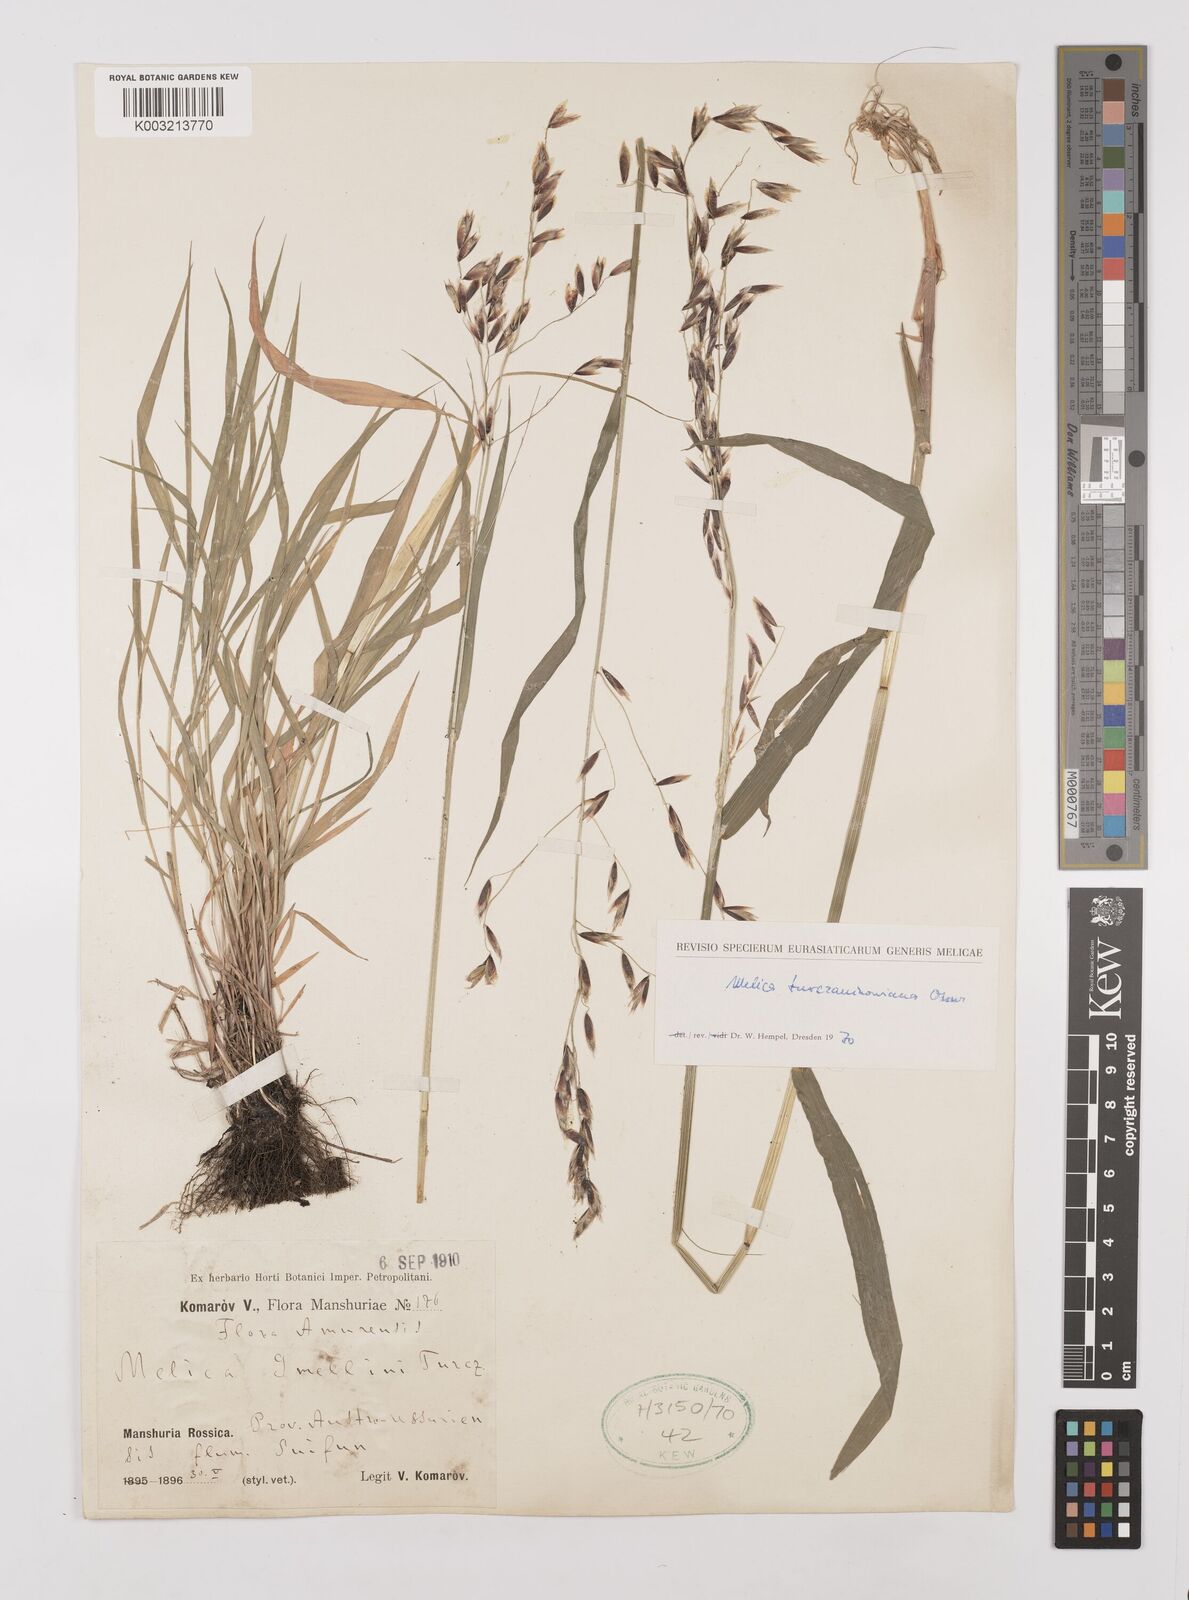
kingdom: Plantae
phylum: Tracheophyta
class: Liliopsida
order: Poales
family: Poaceae
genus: Melica
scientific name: Melica turczaninowiana
